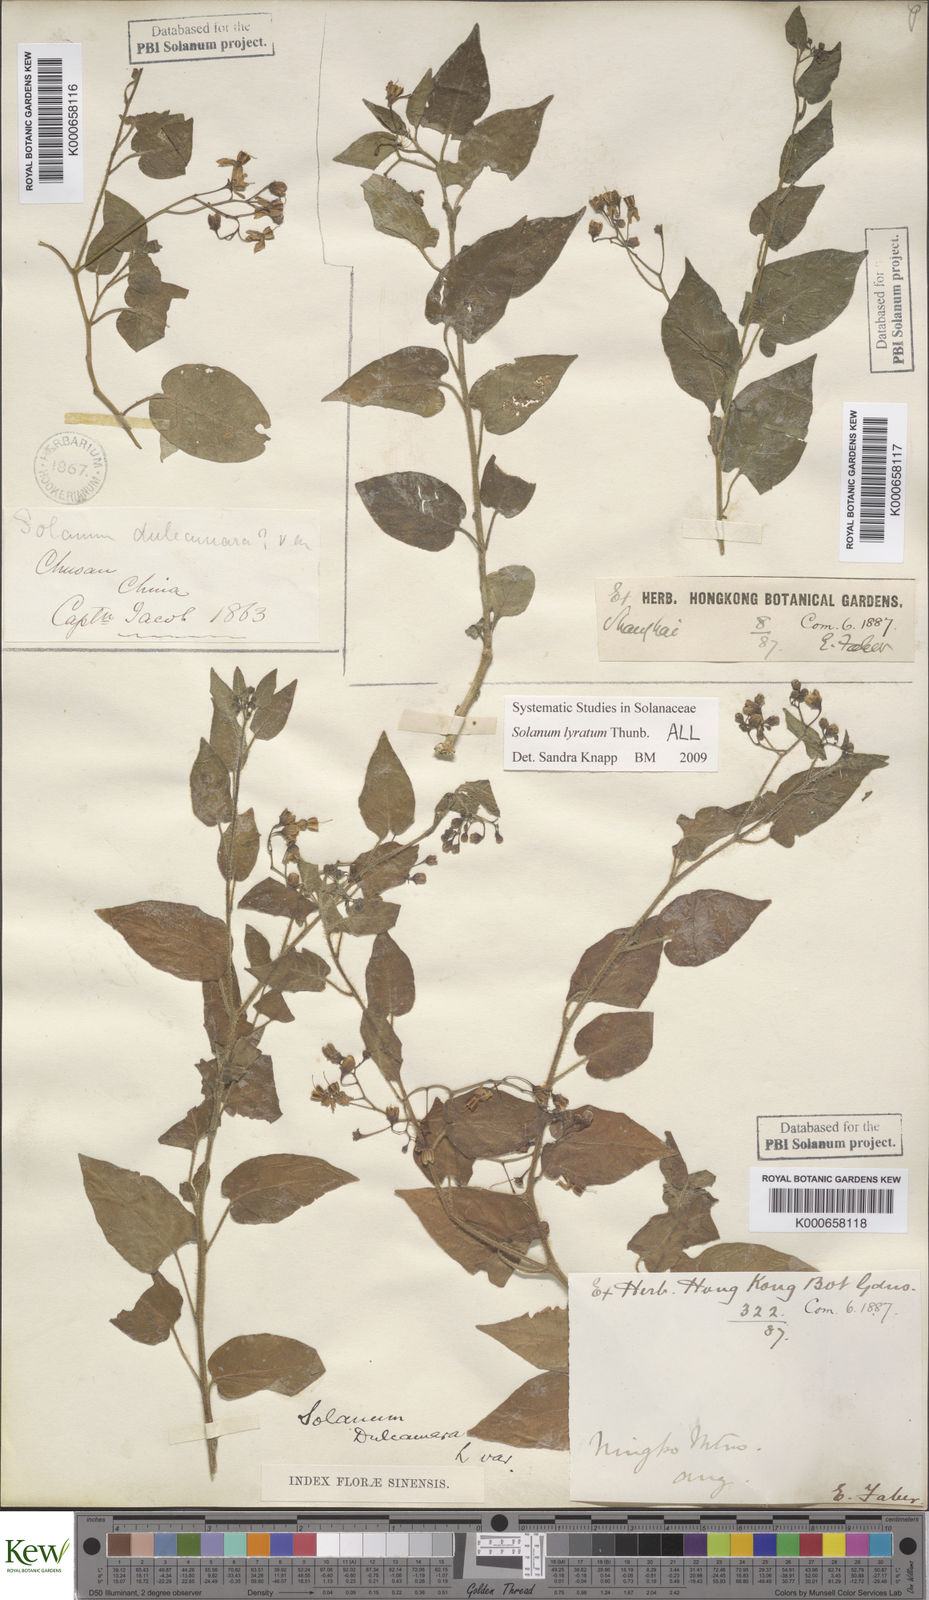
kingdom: Plantae
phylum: Tracheophyta
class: Magnoliopsida
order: Solanales
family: Solanaceae
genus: Solanum
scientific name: Solanum lyratum
